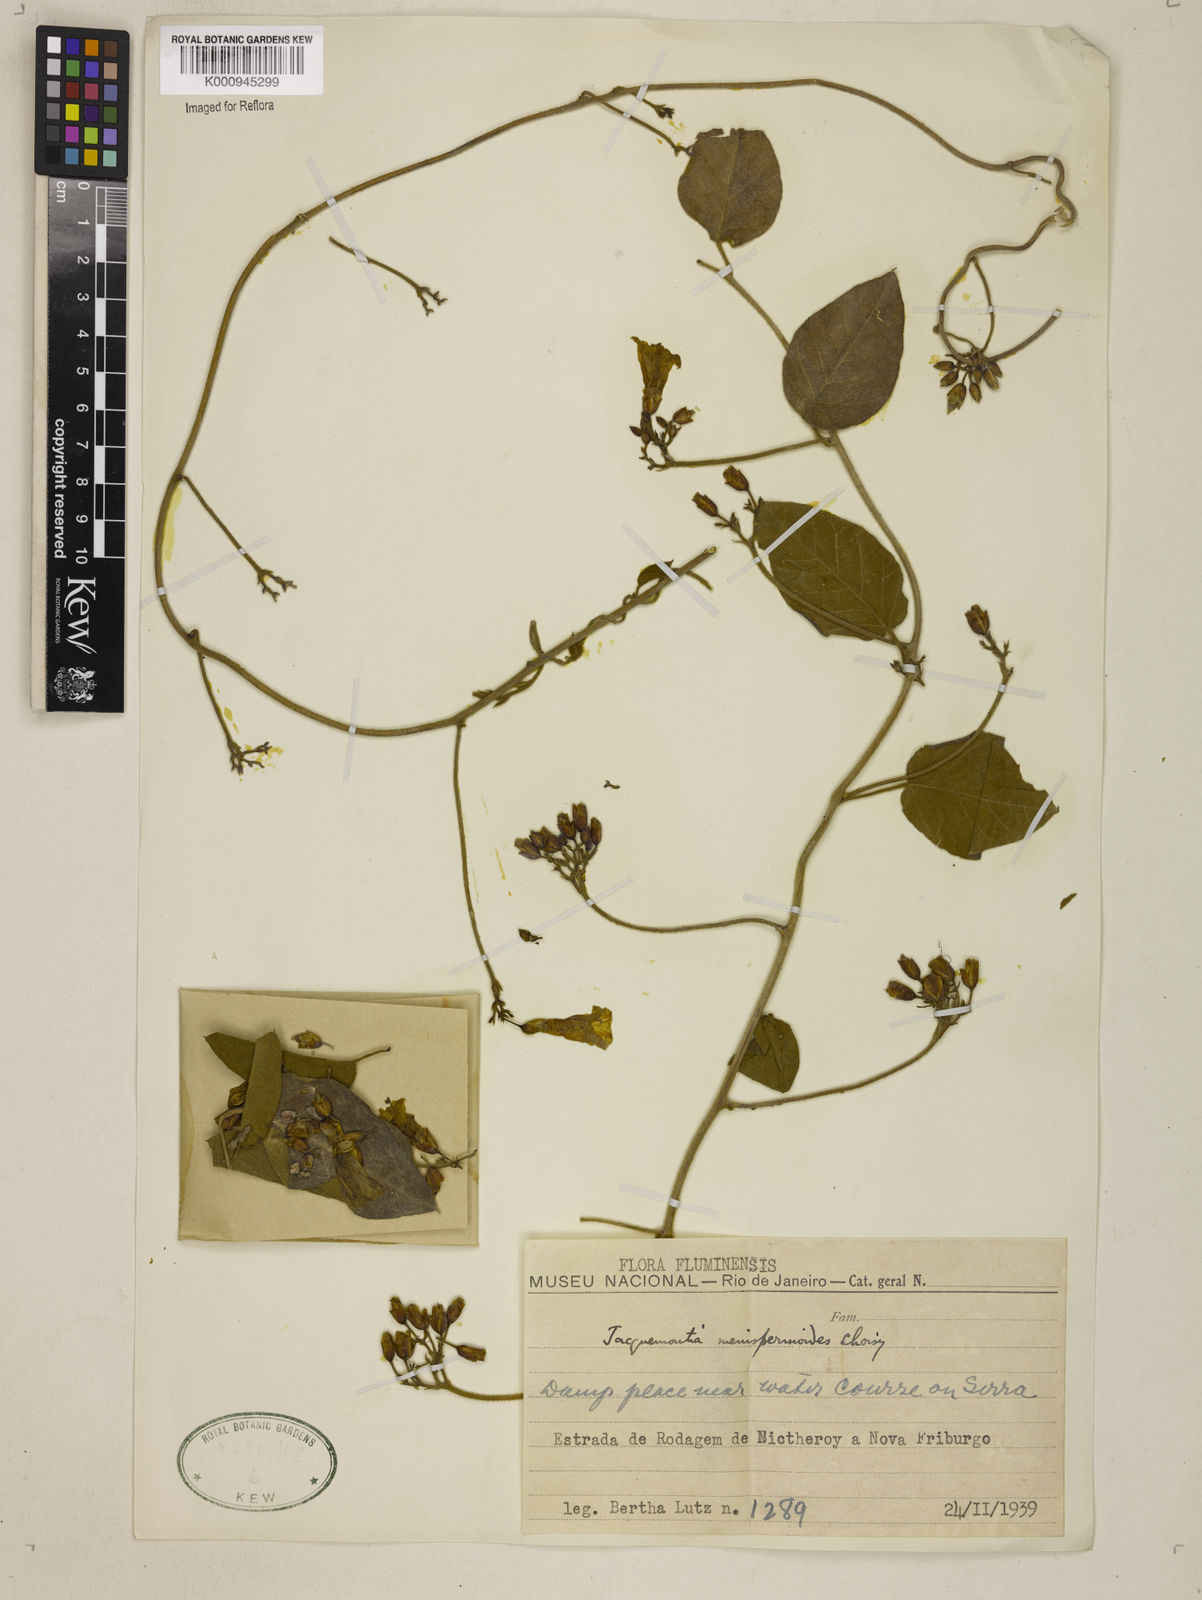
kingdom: Plantae
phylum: Tracheophyta
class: Magnoliopsida
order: Solanales
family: Convolvulaceae
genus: Jacquemontia
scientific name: Jacquemontia holosericea
